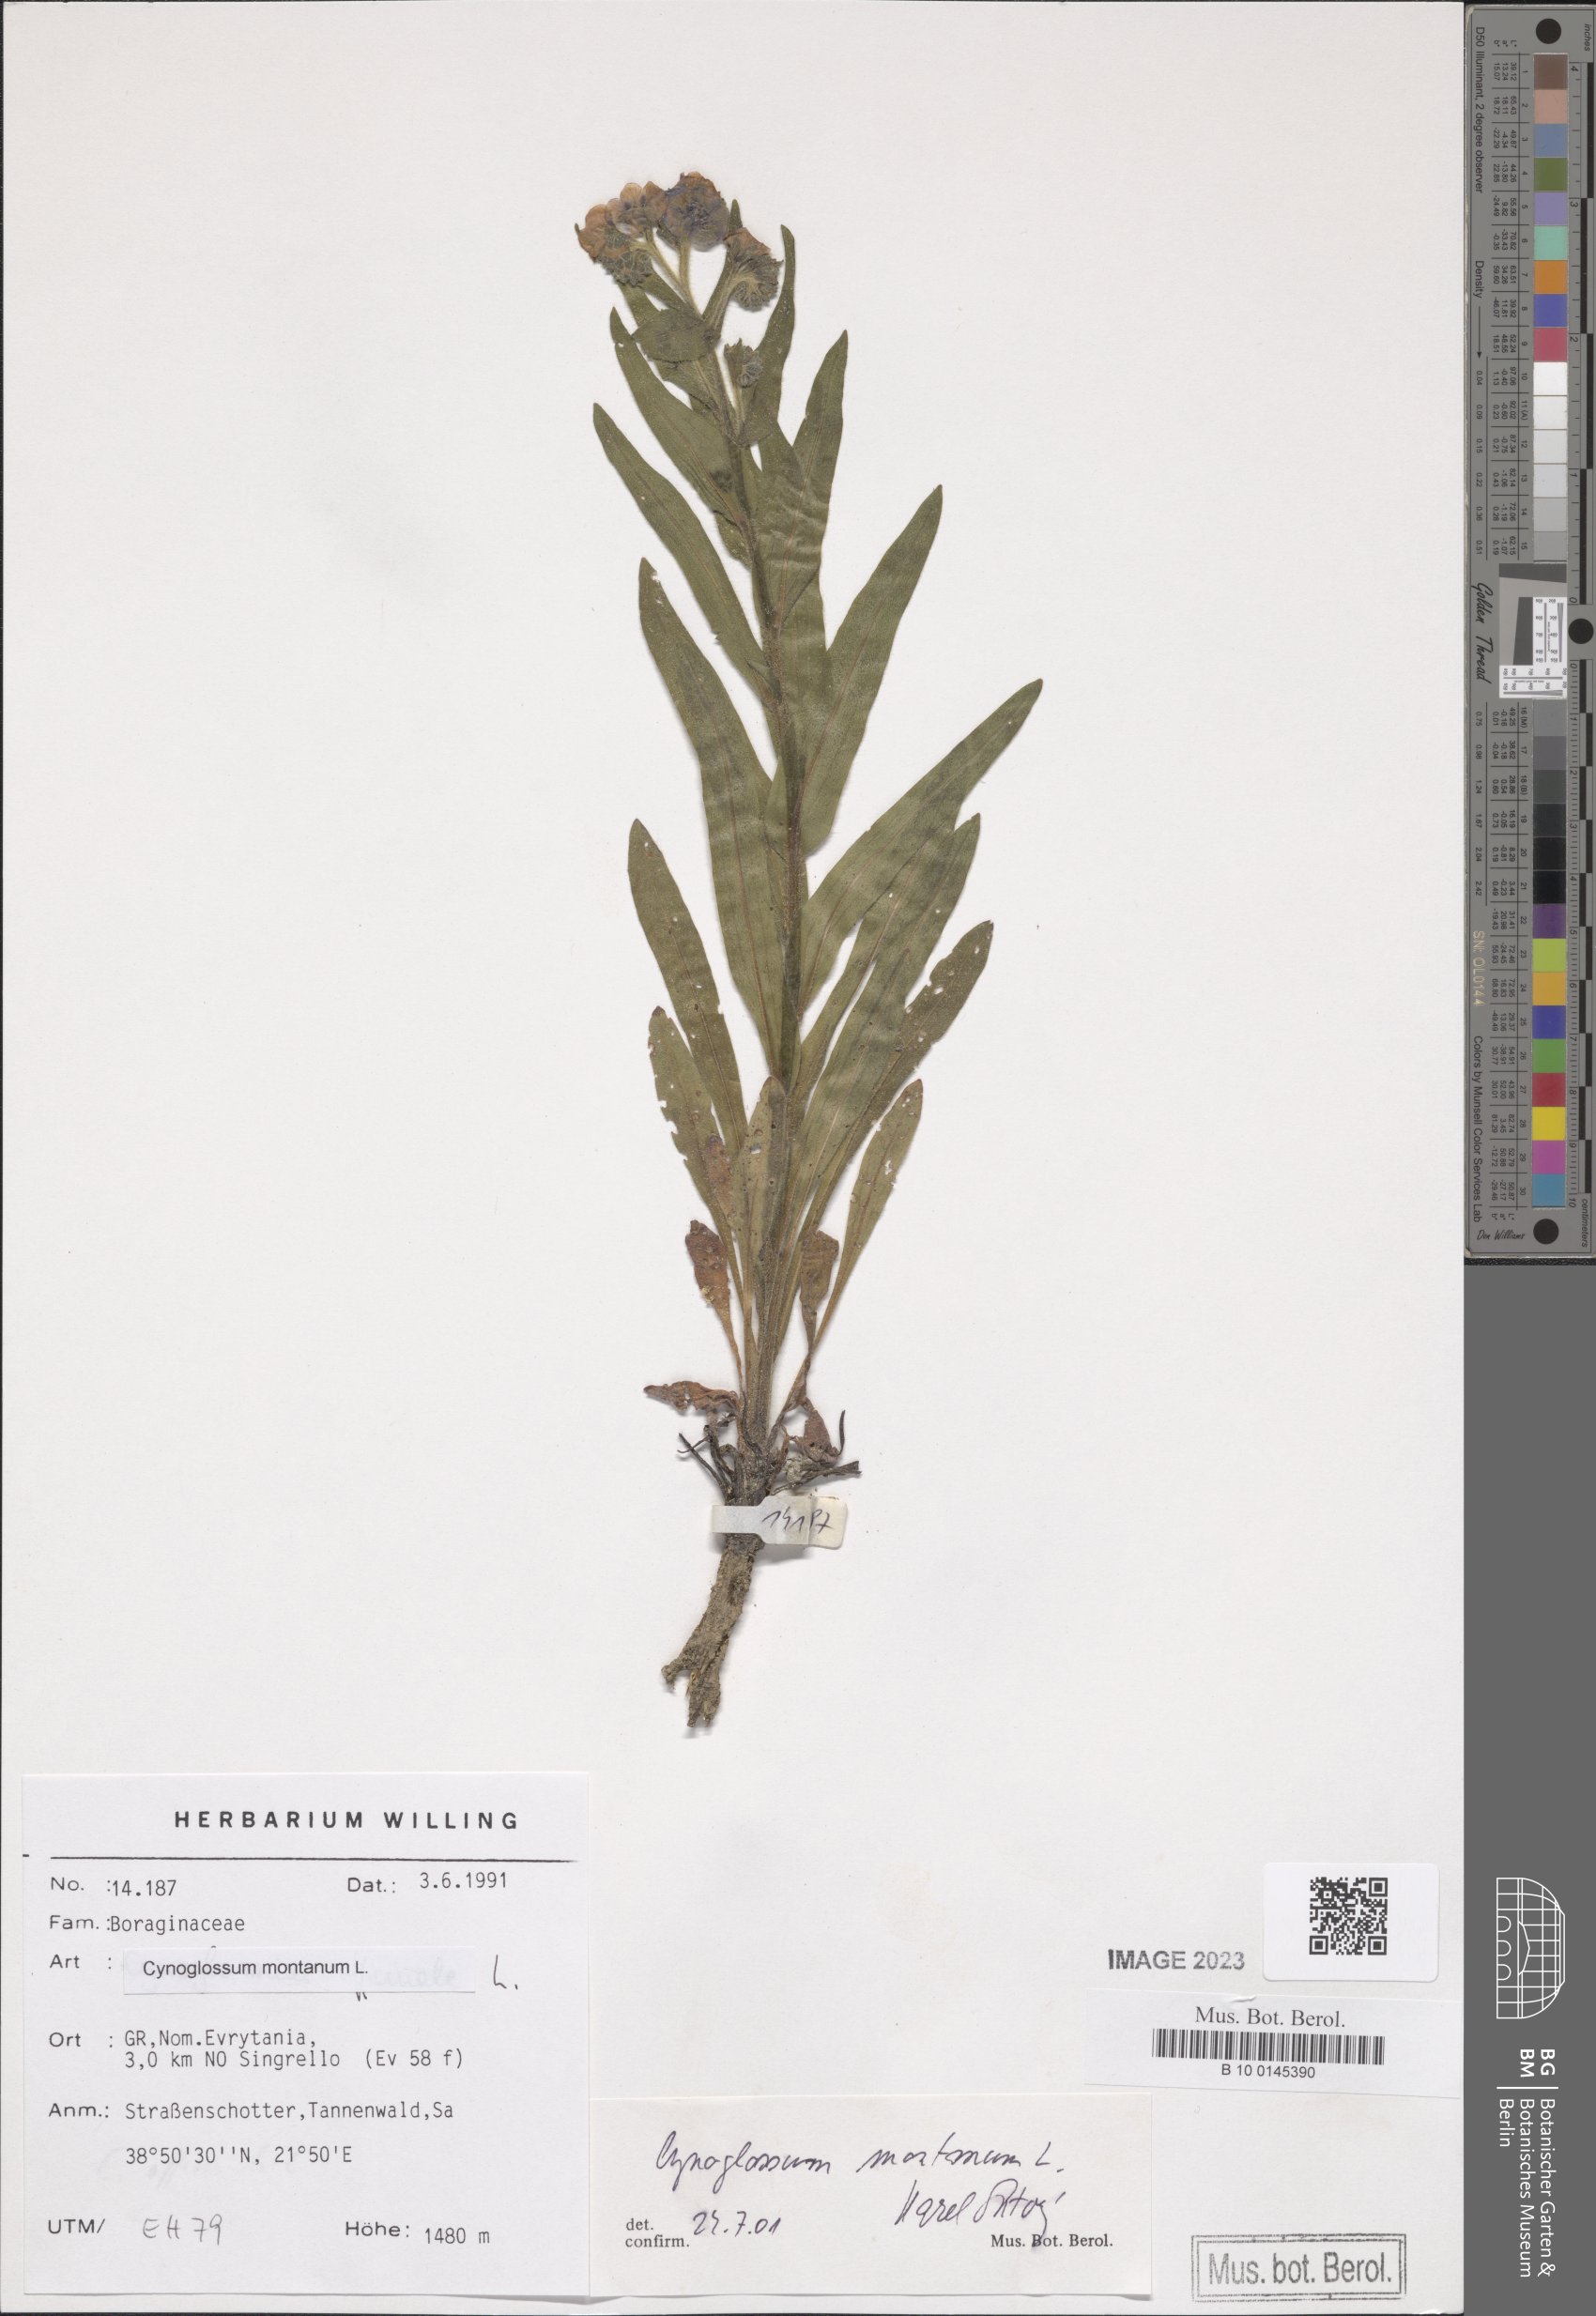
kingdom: Plantae
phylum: Tracheophyta
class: Magnoliopsida
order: Boraginales
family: Boraginaceae
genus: Cynoglossum
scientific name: Cynoglossum montanum
